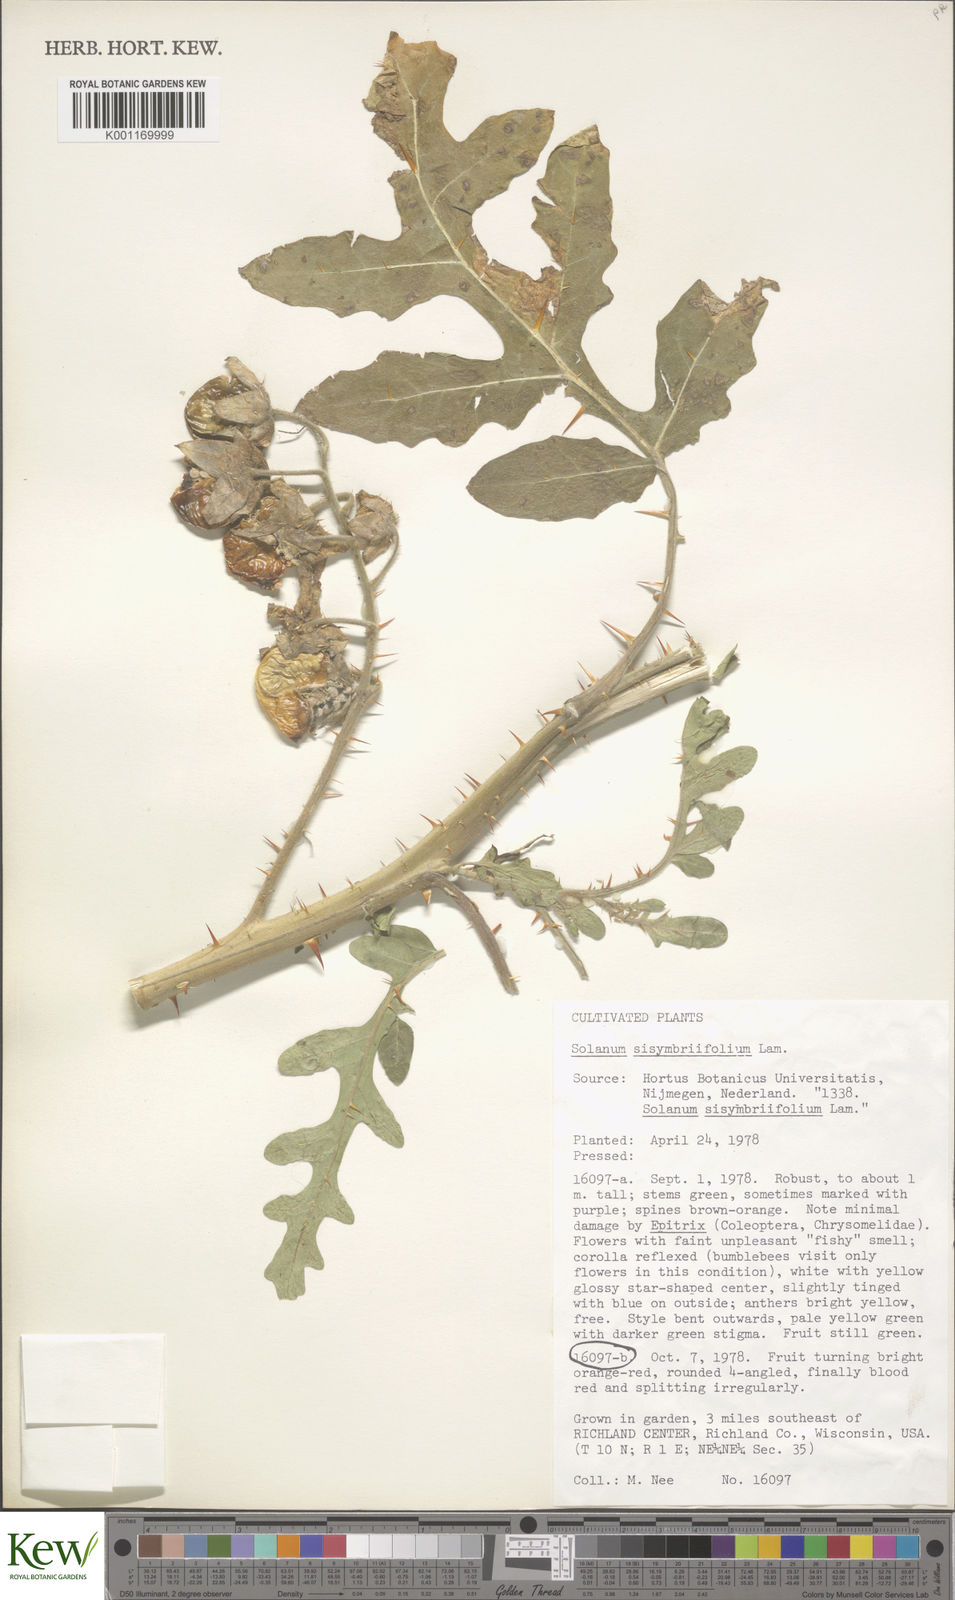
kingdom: Plantae
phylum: Tracheophyta
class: Magnoliopsida
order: Solanales
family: Solanaceae
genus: Solanum
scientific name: Solanum sisymbriifolium
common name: Red buffalo-bur
